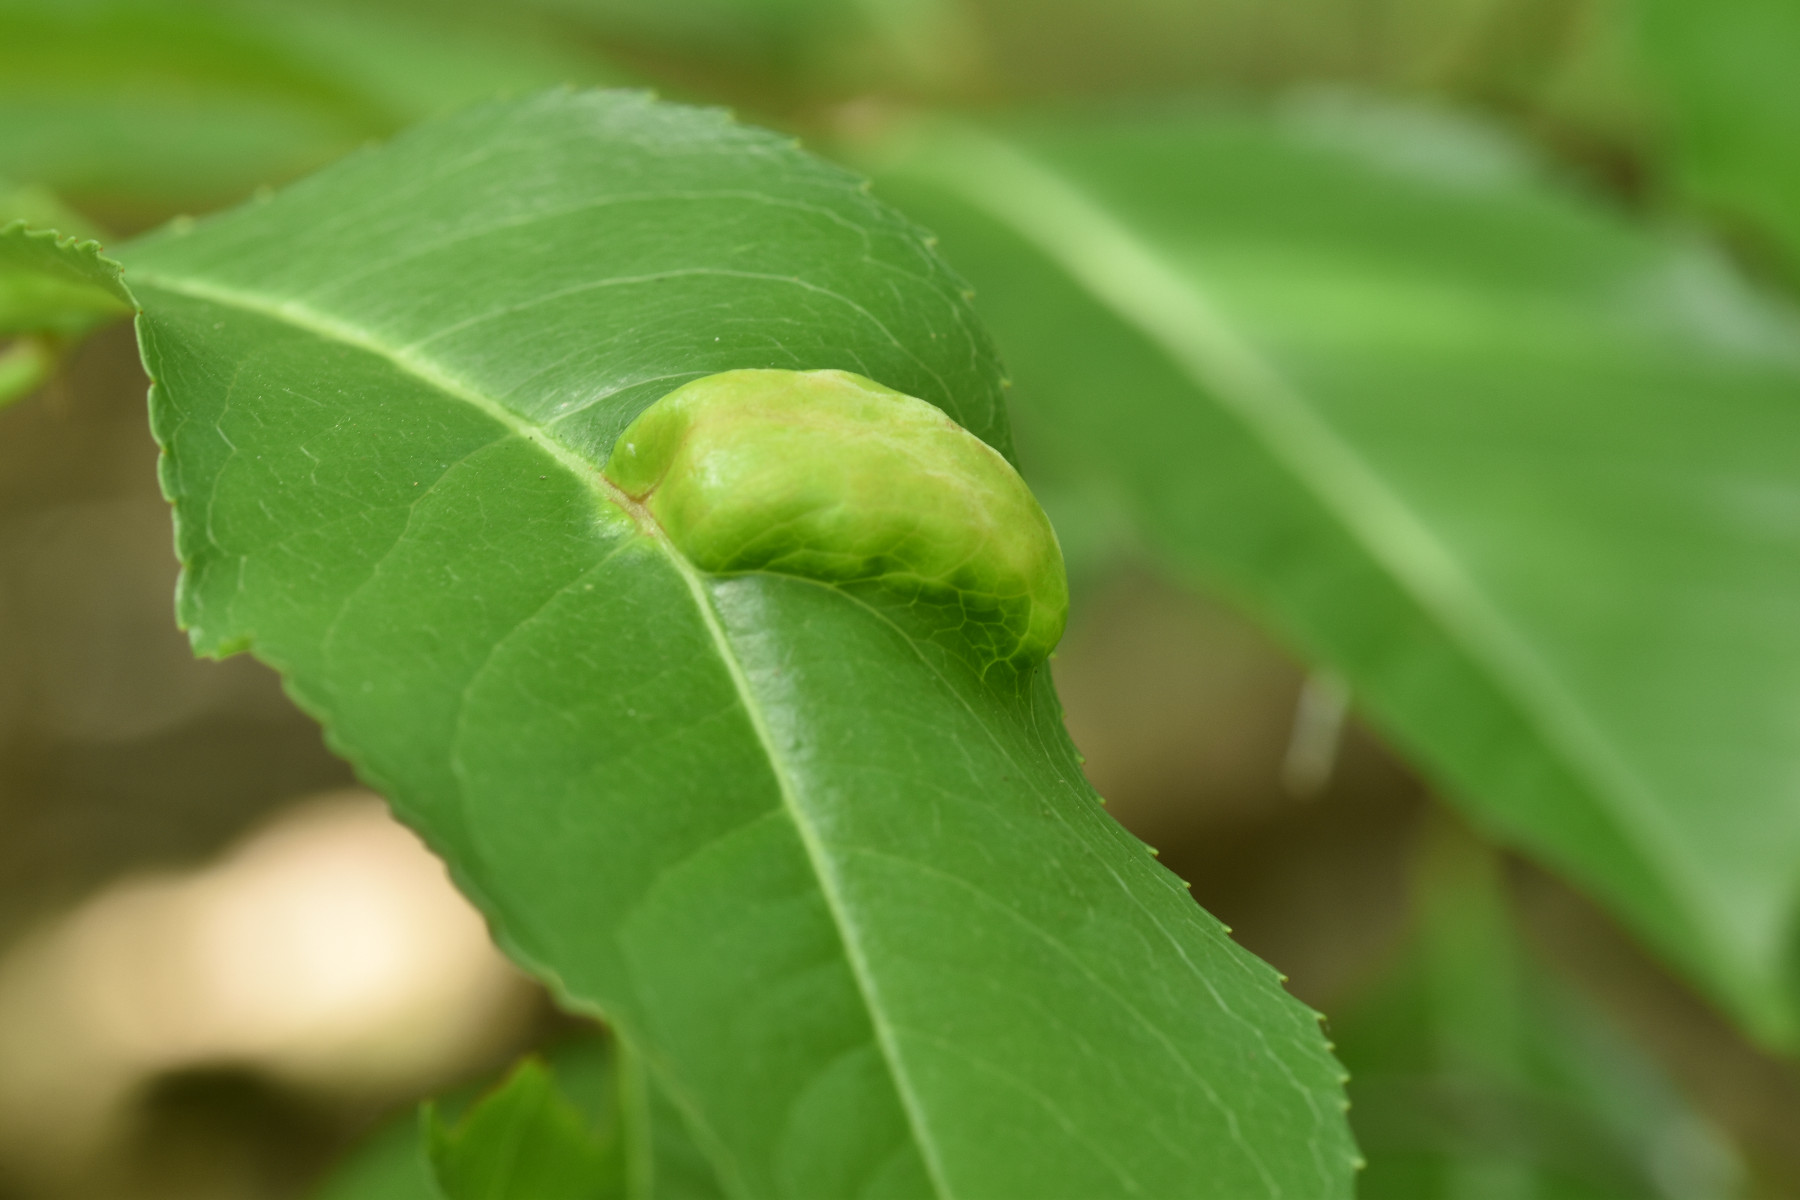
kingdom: Fungi
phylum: Ascomycota
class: Taphrinomycetes
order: Taphrinales
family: Taphrinaceae
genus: Taphrina
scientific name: Taphrina farlowii
